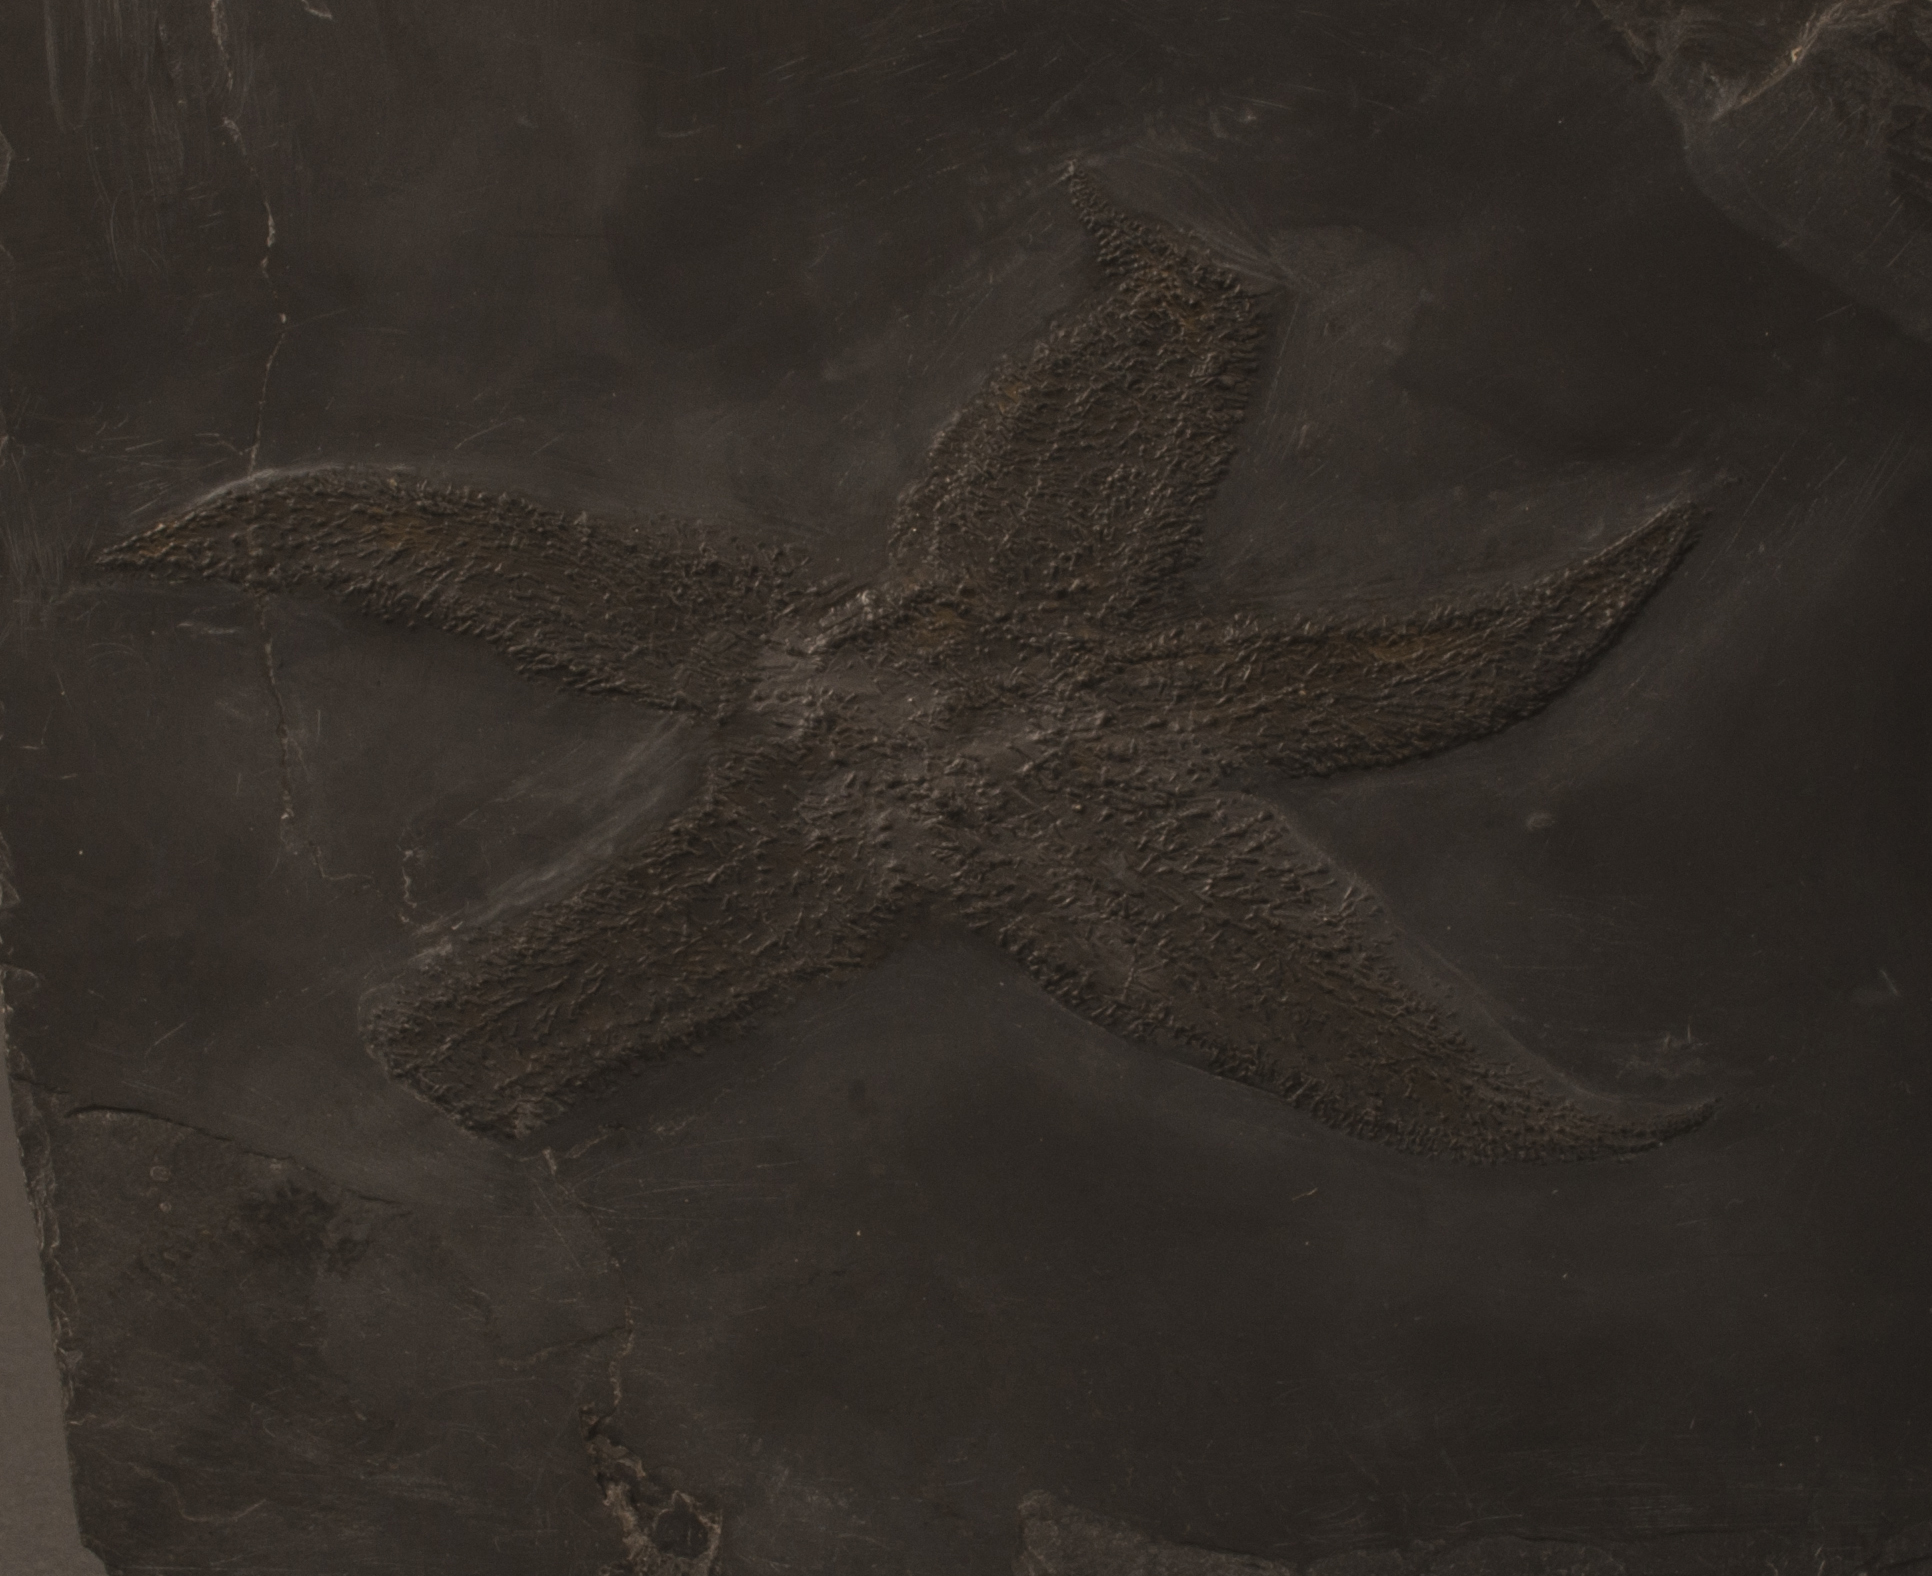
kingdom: Animalia
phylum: Echinodermata
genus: Jaekelaster
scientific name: Jaekelaster petaliformis
